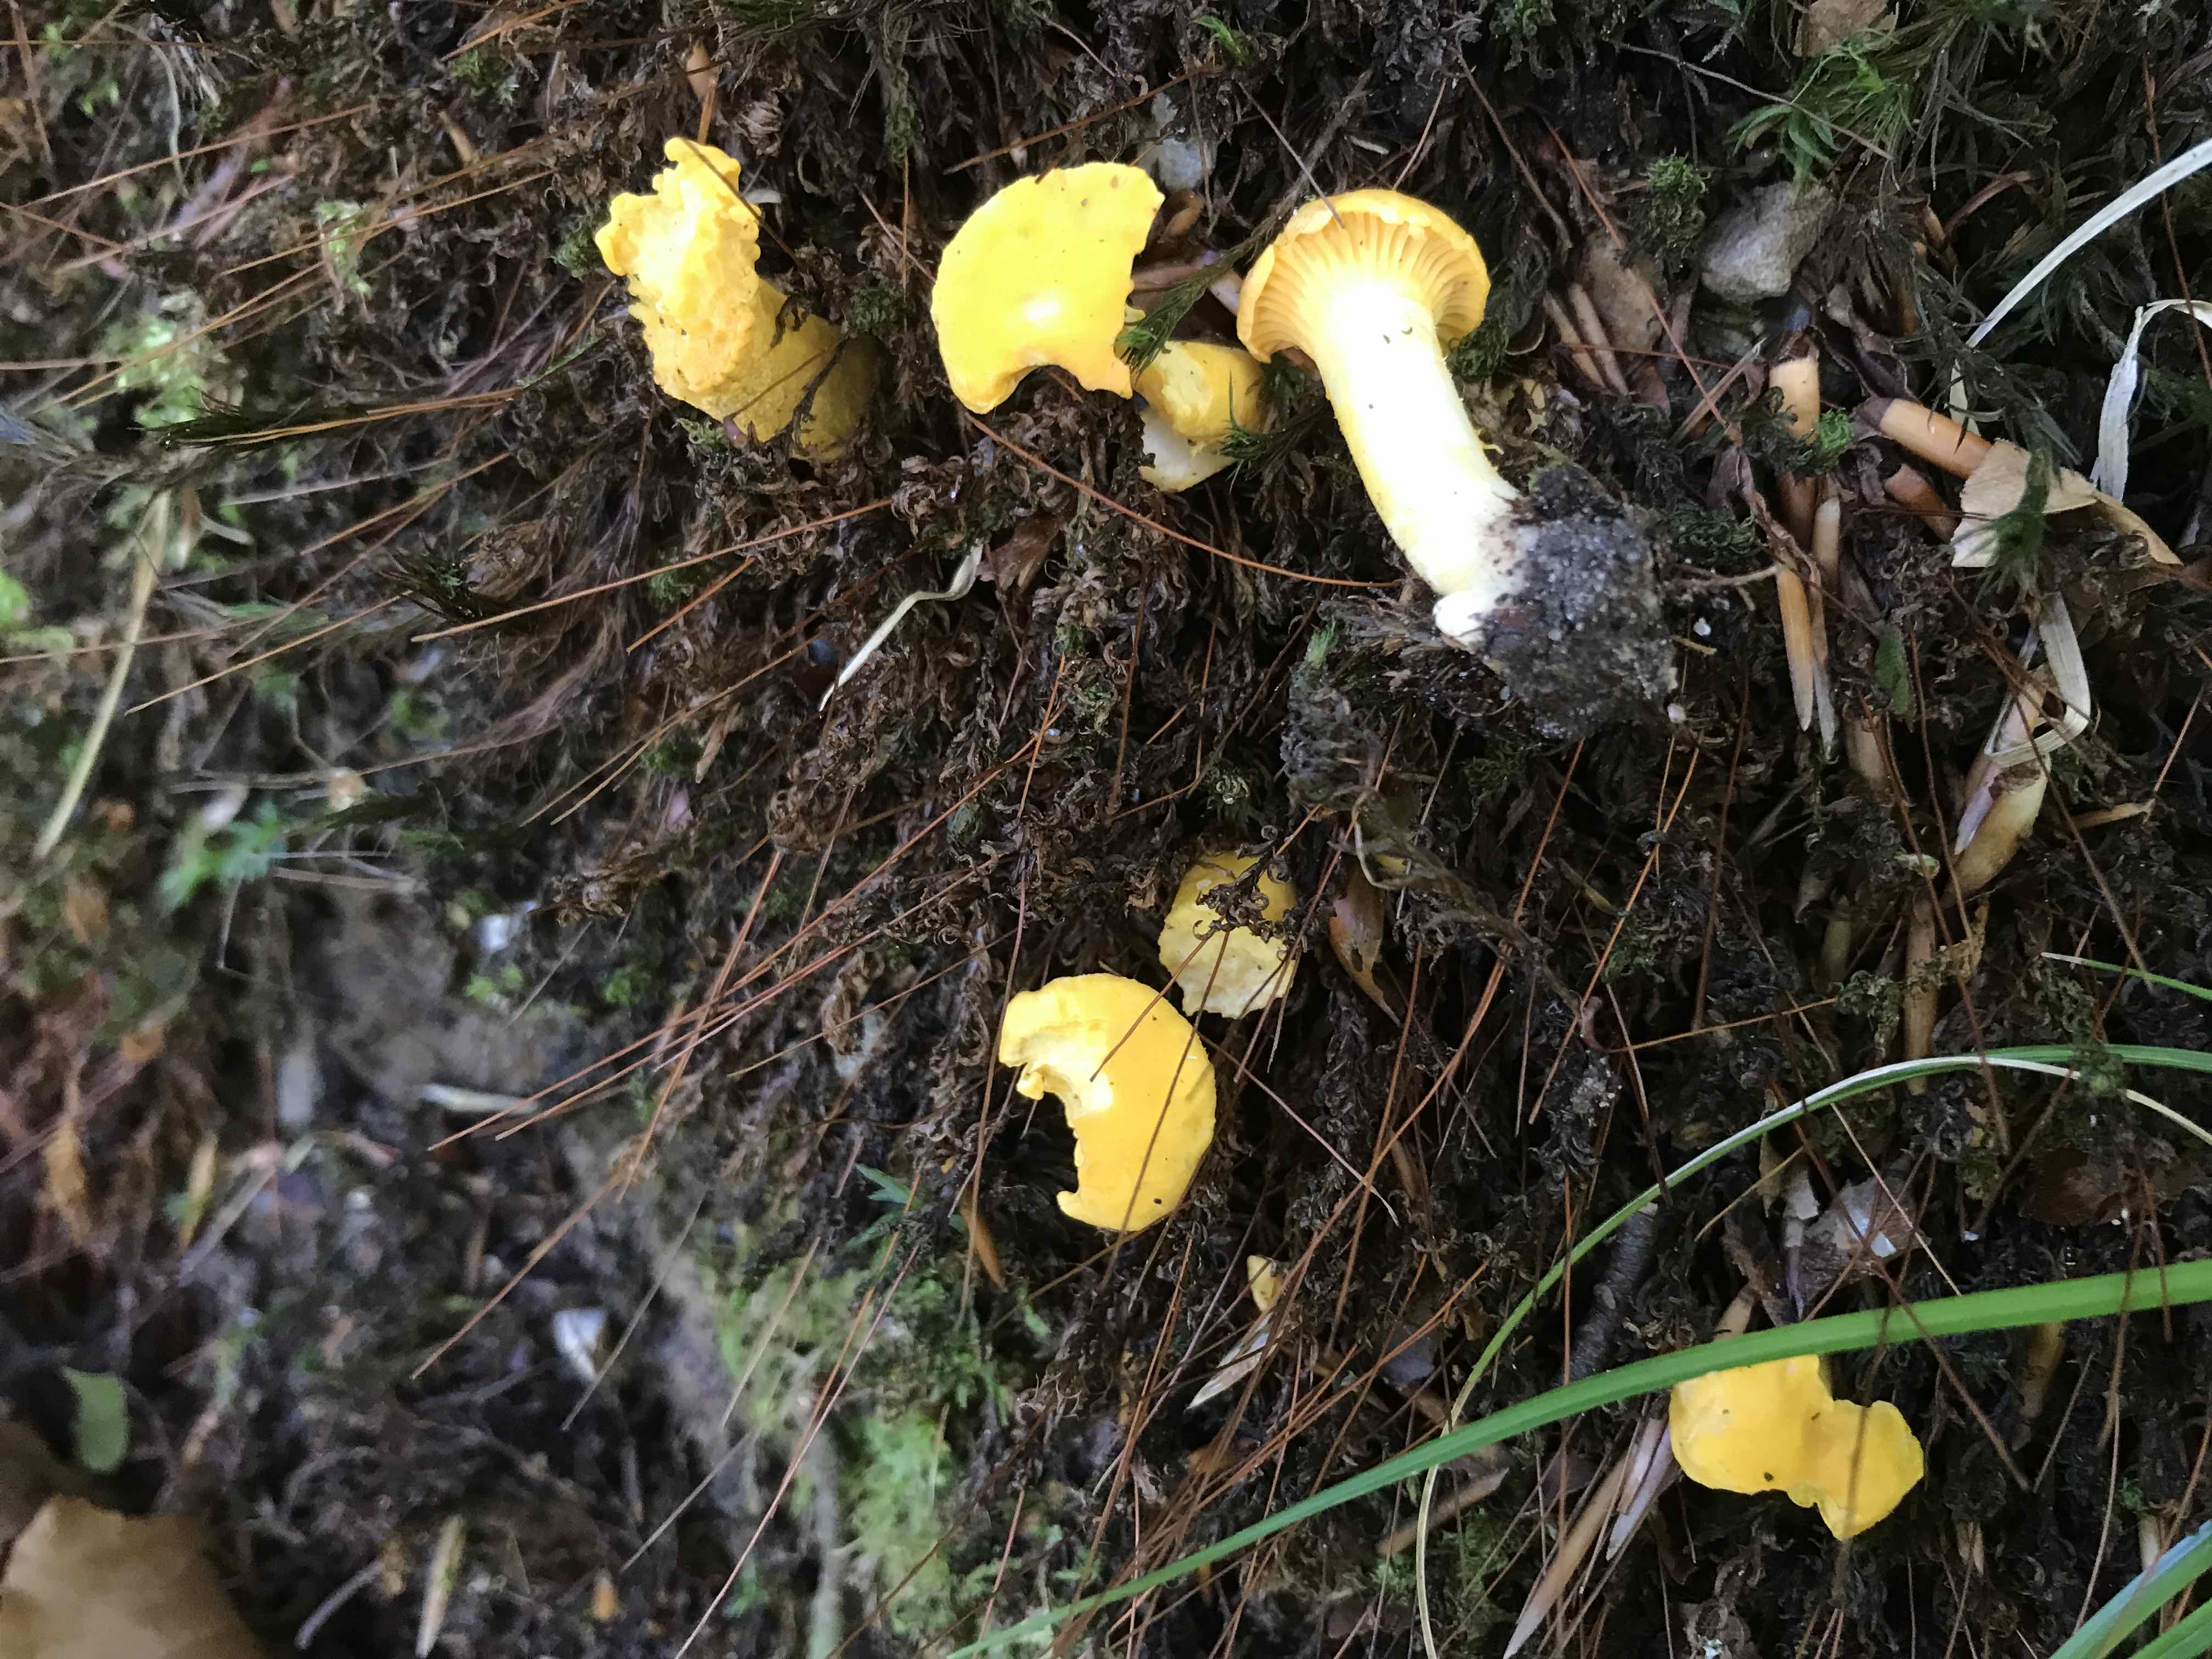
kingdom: Fungi
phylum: Basidiomycota
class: Agaricomycetes
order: Cantharellales
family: Hydnaceae
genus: Cantharellus
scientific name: Cantharellus cibarius
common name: almindelig kantarel
